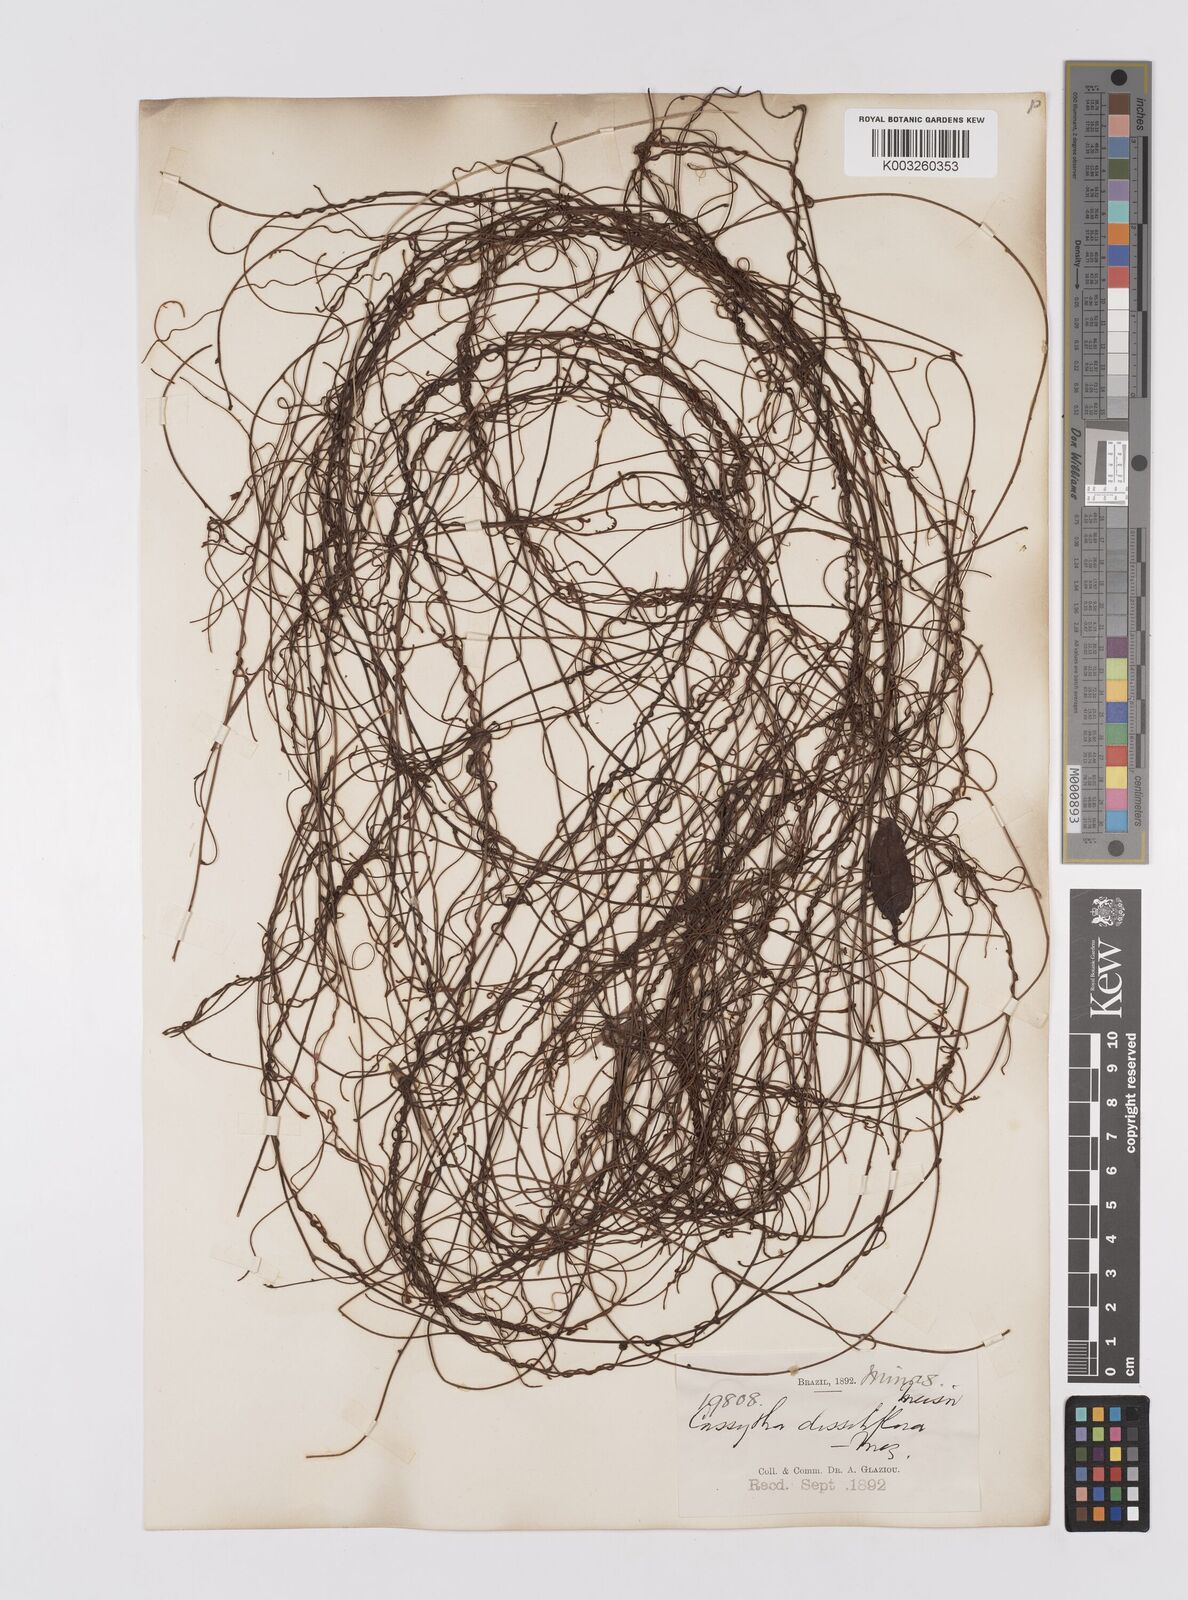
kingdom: Plantae
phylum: Tracheophyta
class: Magnoliopsida
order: Laurales
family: Lauraceae
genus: Cassytha
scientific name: Cassytha filiformis
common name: Dodder-laurel
